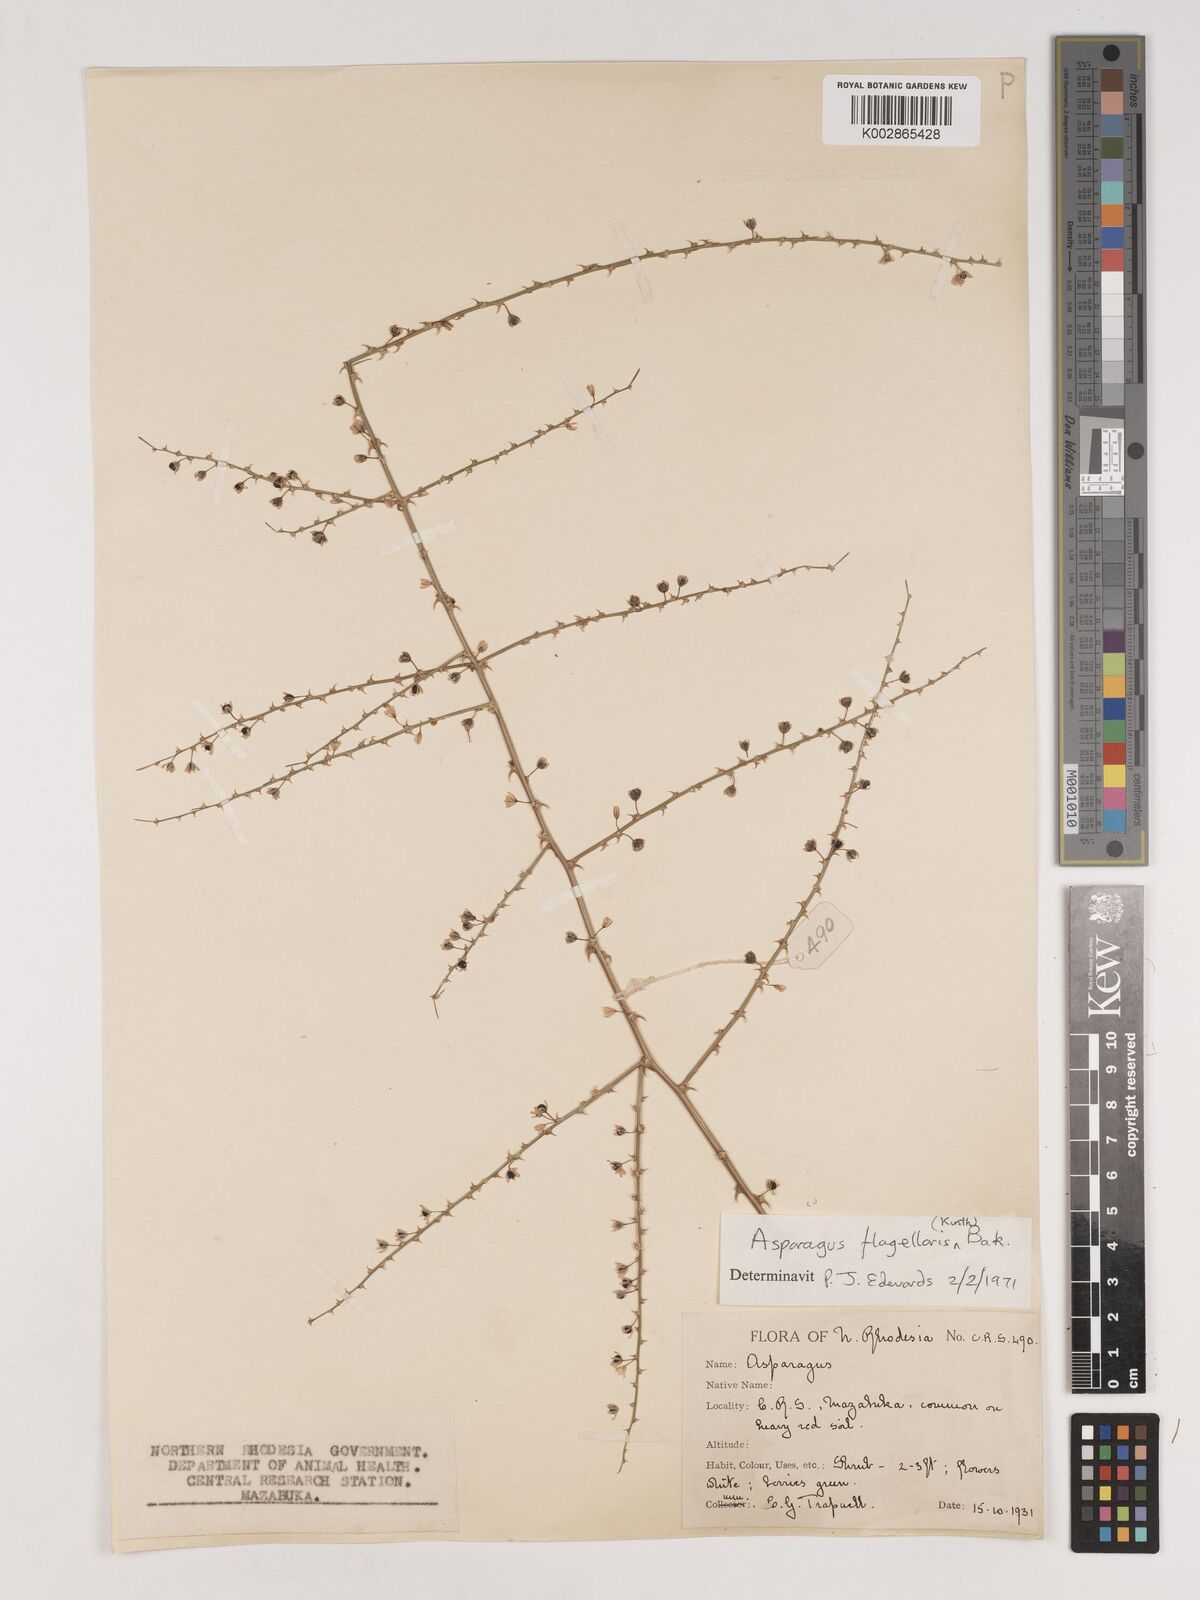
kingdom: Plantae
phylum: Tracheophyta
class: Liliopsida
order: Asparagales
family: Asparagaceae
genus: Asparagus
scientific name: Asparagus flagellaris
